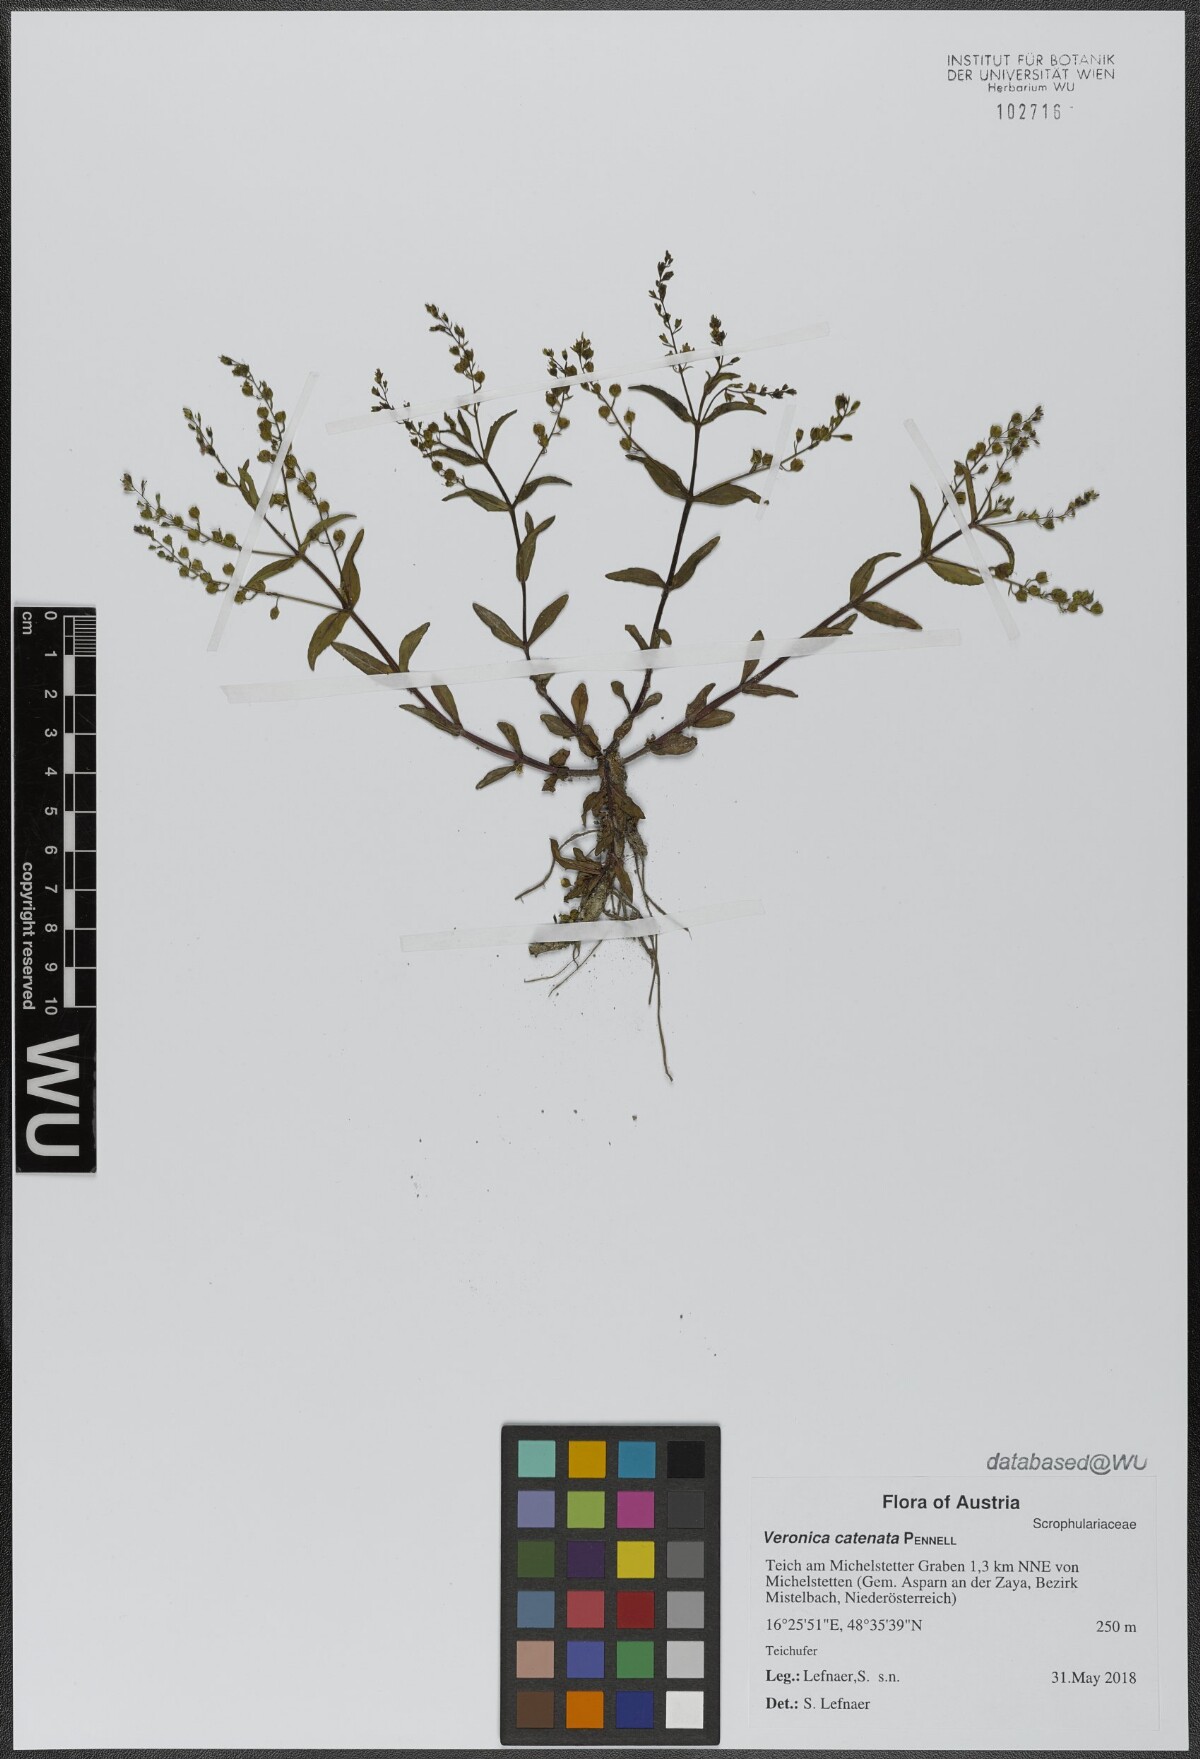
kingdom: Plantae
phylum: Tracheophyta
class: Magnoliopsida
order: Lamiales
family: Plantaginaceae
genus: Veronica
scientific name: Veronica catenata
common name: Pink water-speedwell
